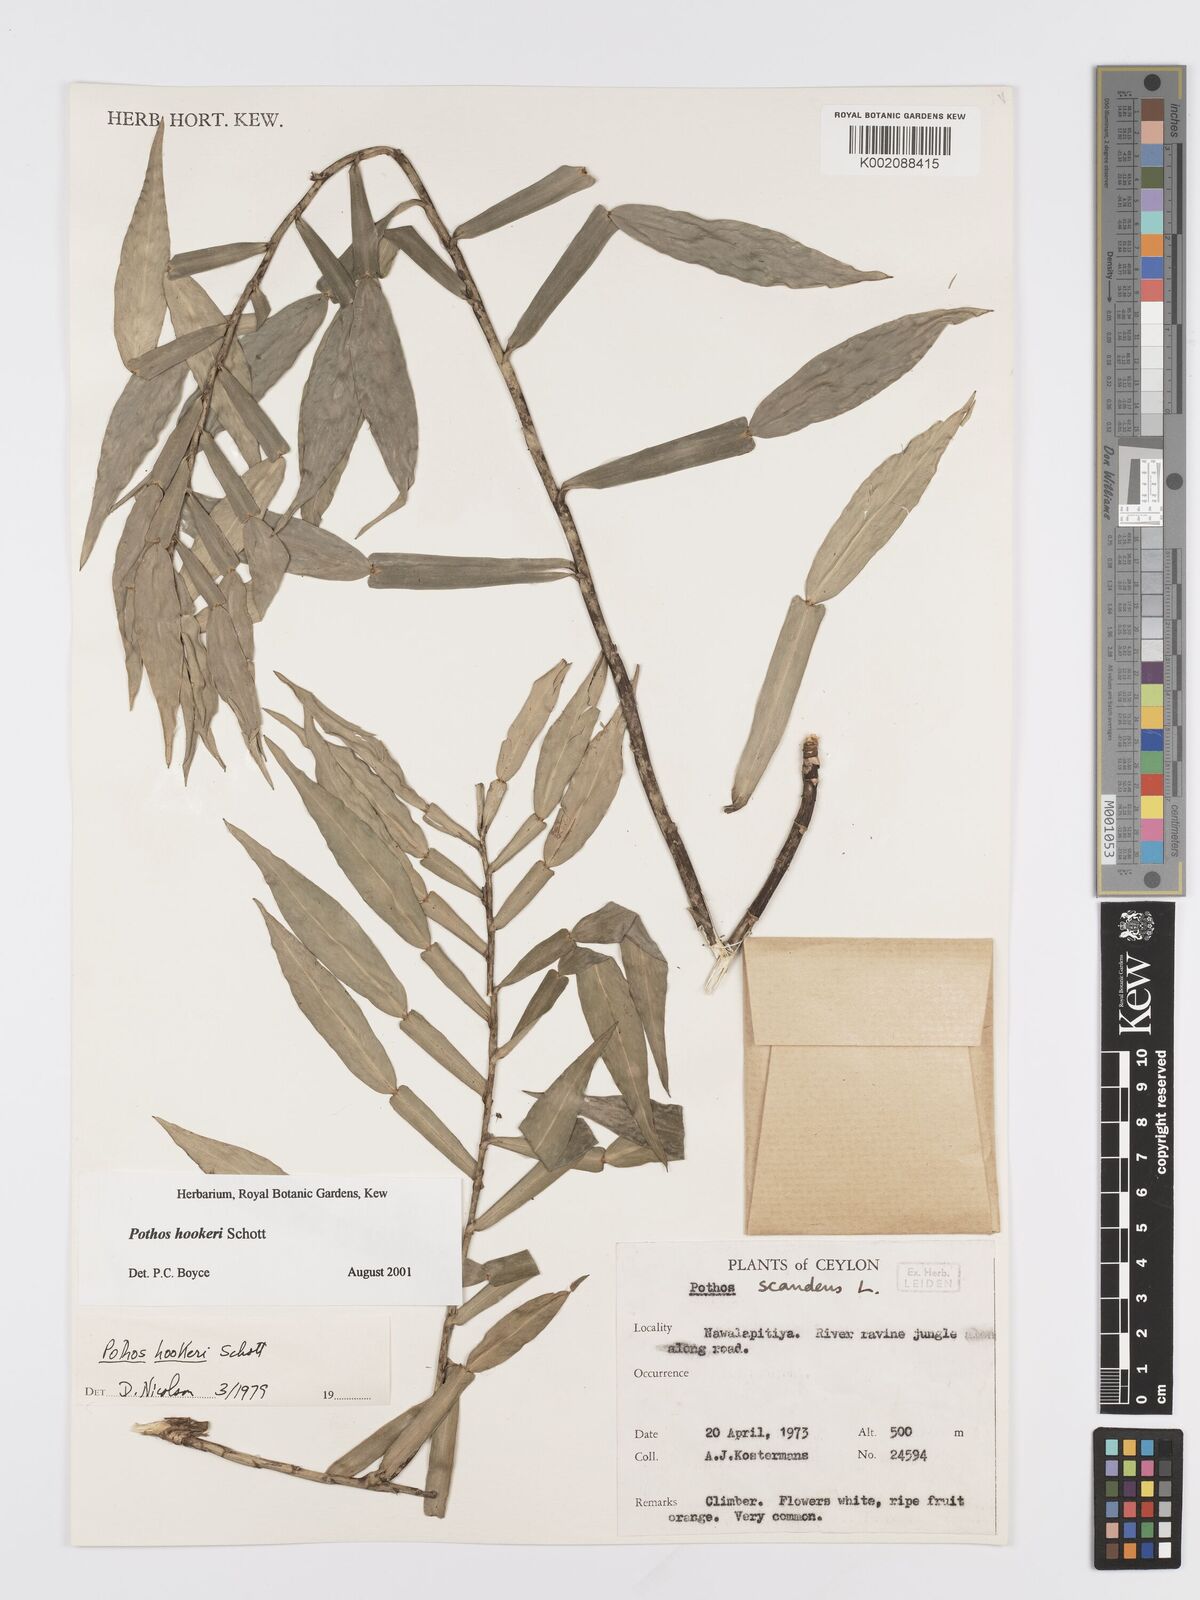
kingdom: Plantae
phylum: Tracheophyta
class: Liliopsida
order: Alismatales
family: Araceae
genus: Pothos
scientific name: Pothos hookeri
